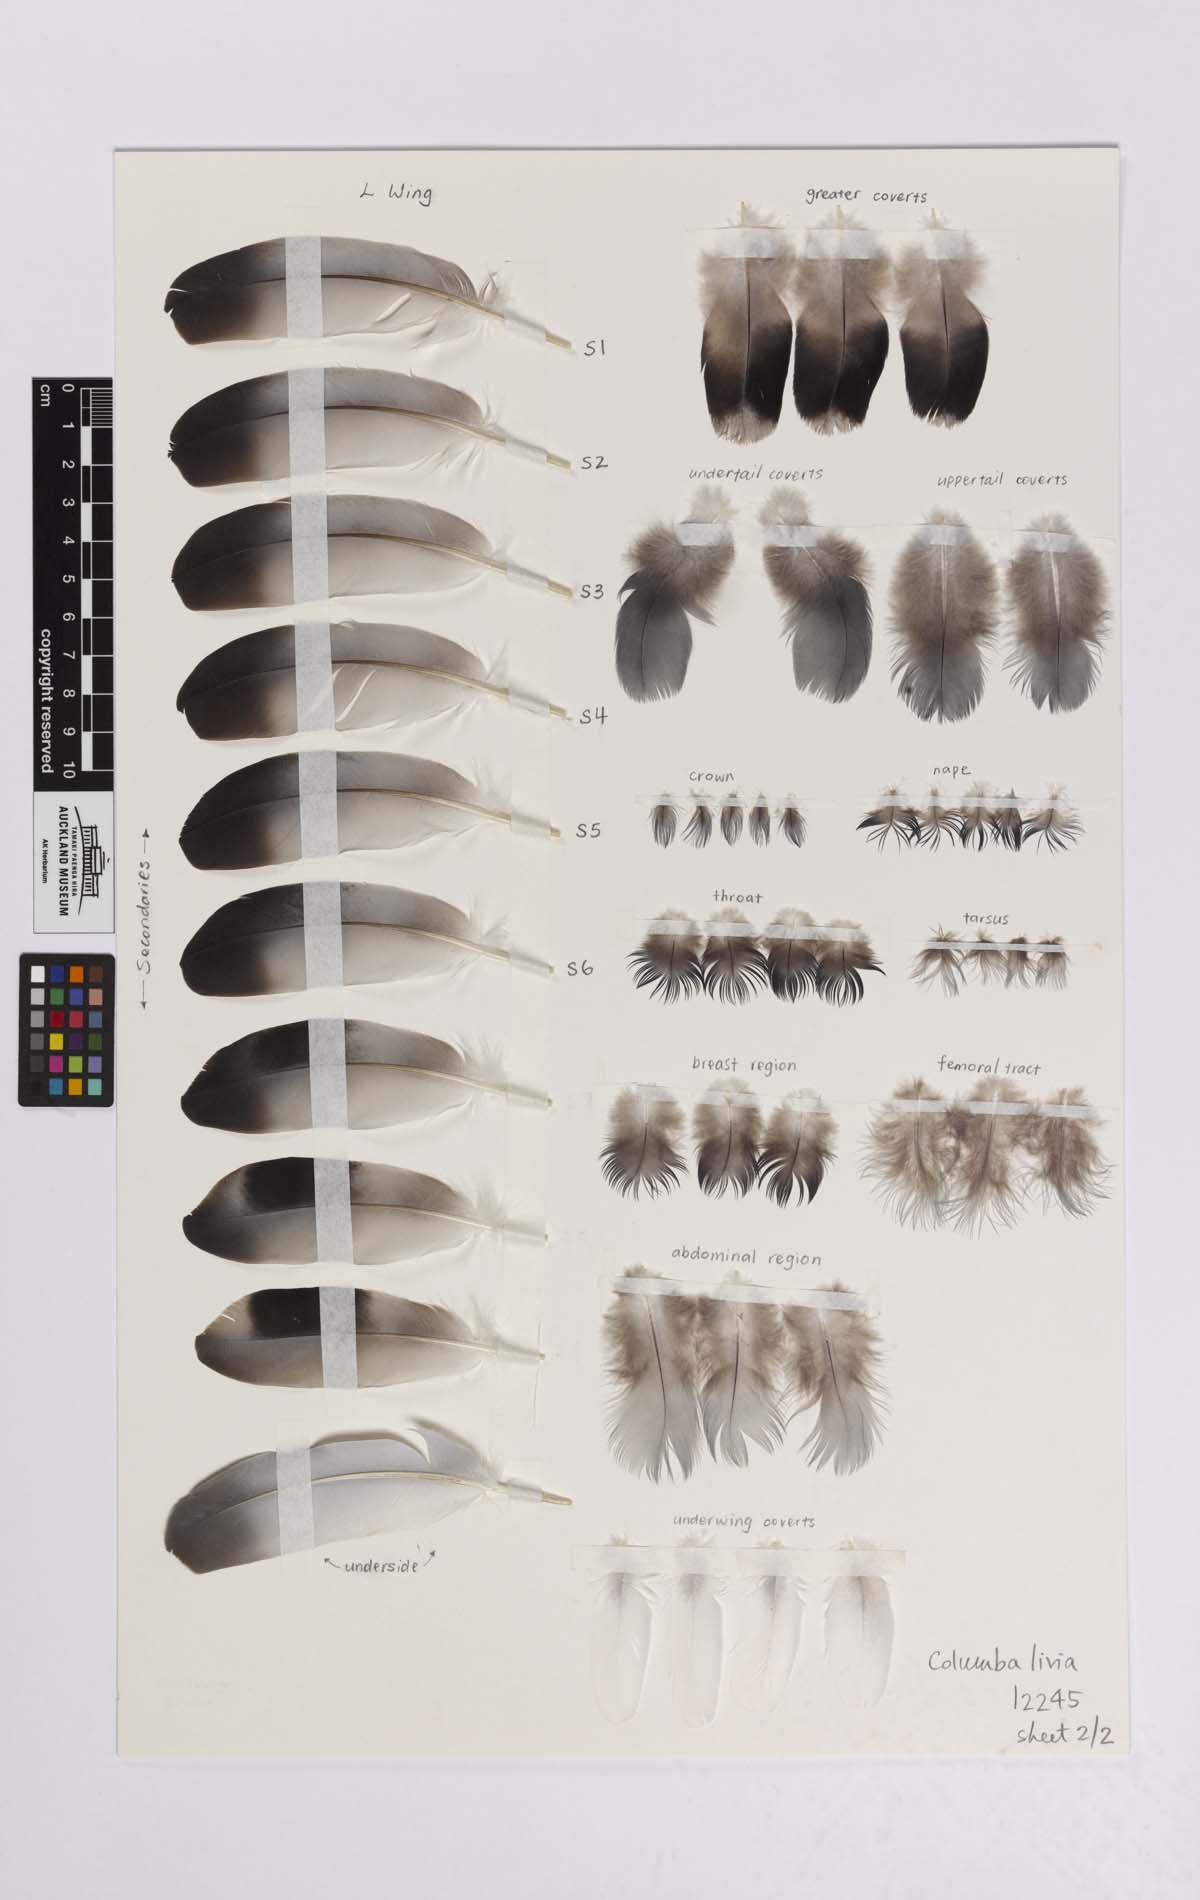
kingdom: Animalia
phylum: Chordata
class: Aves
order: Columbiformes
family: Columbidae
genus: Columba
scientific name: Columba livia
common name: Rock pigeon
